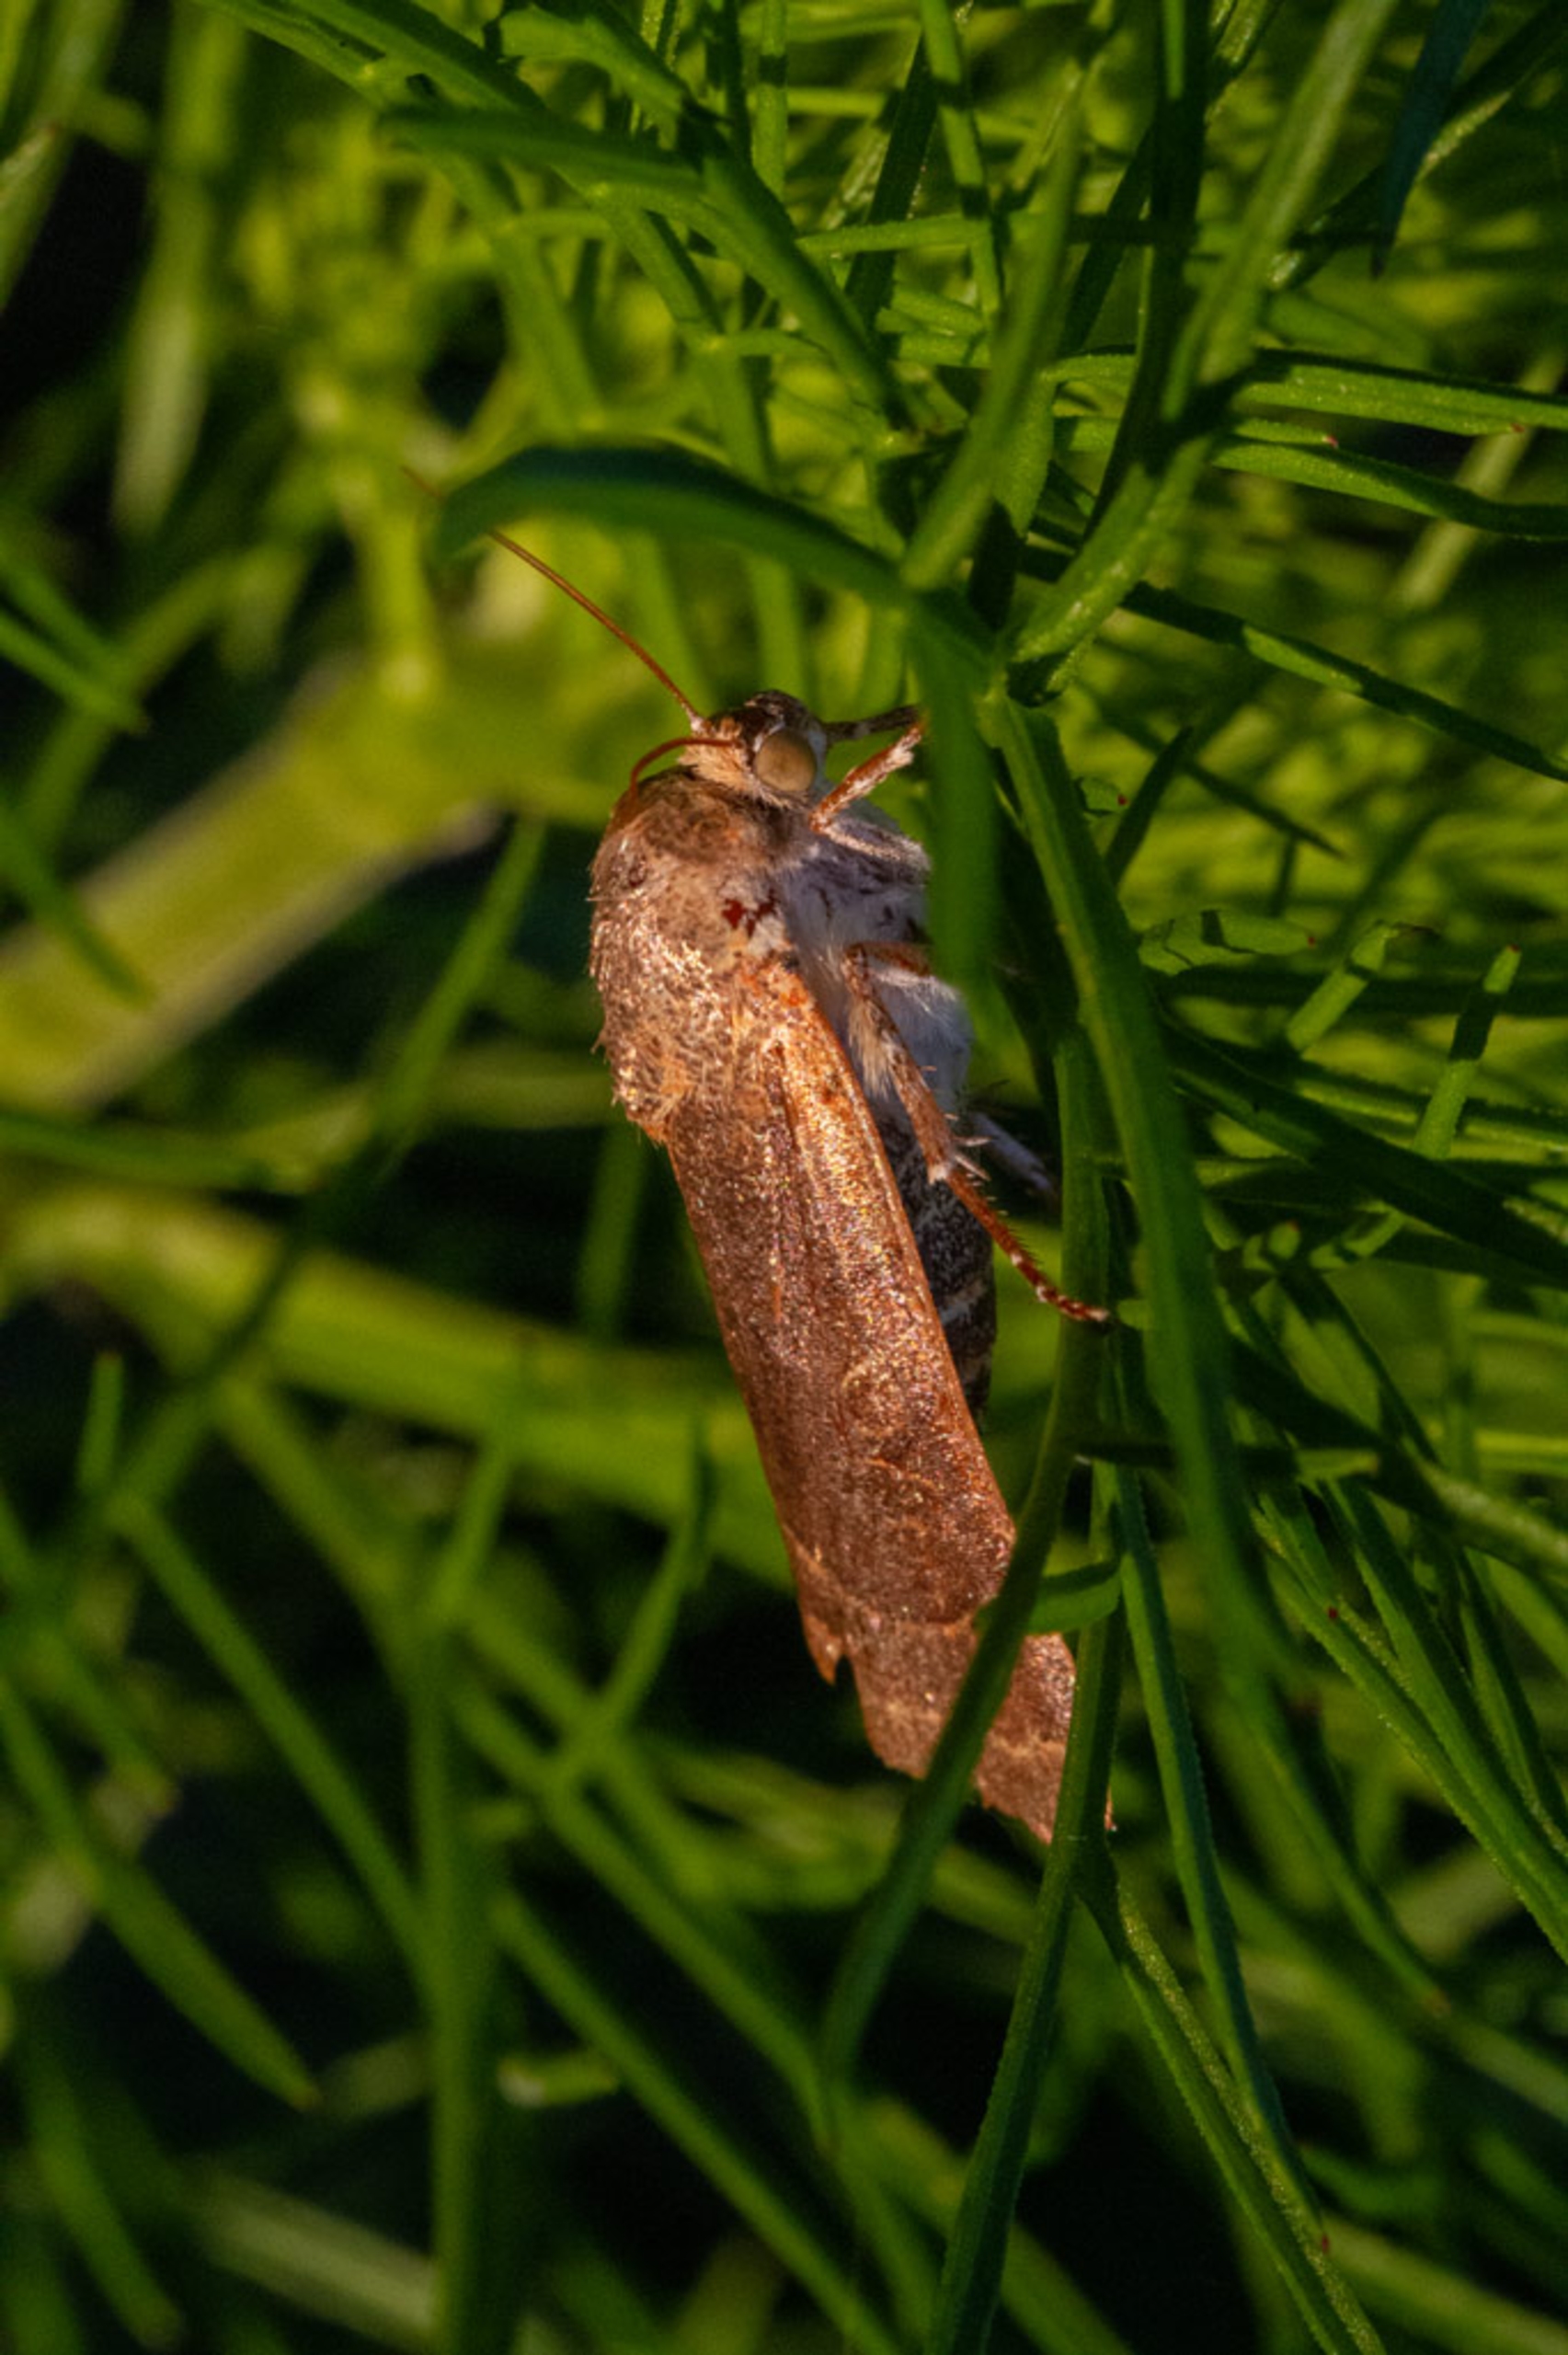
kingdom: Animalia
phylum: Arthropoda
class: Insecta
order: Lepidoptera
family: Noctuidae
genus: Noctua
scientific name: Noctua fimbriata
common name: Gul båndugle
